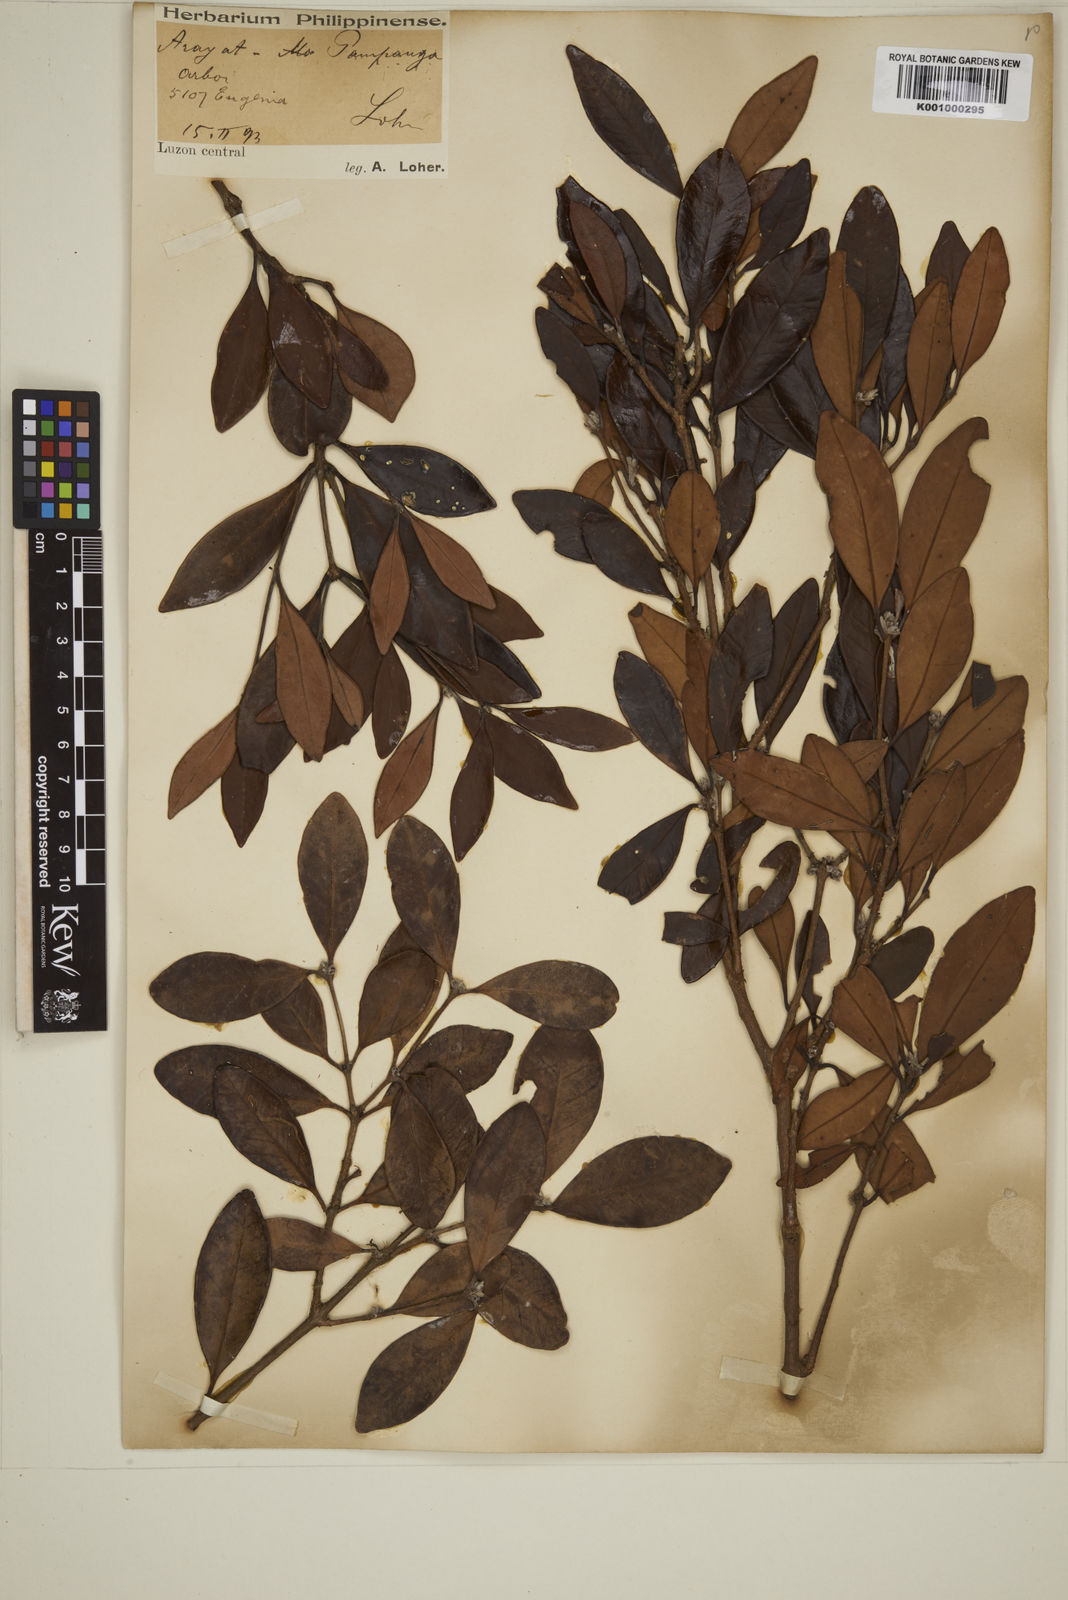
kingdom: Plantae
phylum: Tracheophyta
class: Magnoliopsida
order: Myrtales
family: Myrtaceae
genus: Eugenia
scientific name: Eugenia sargentii
